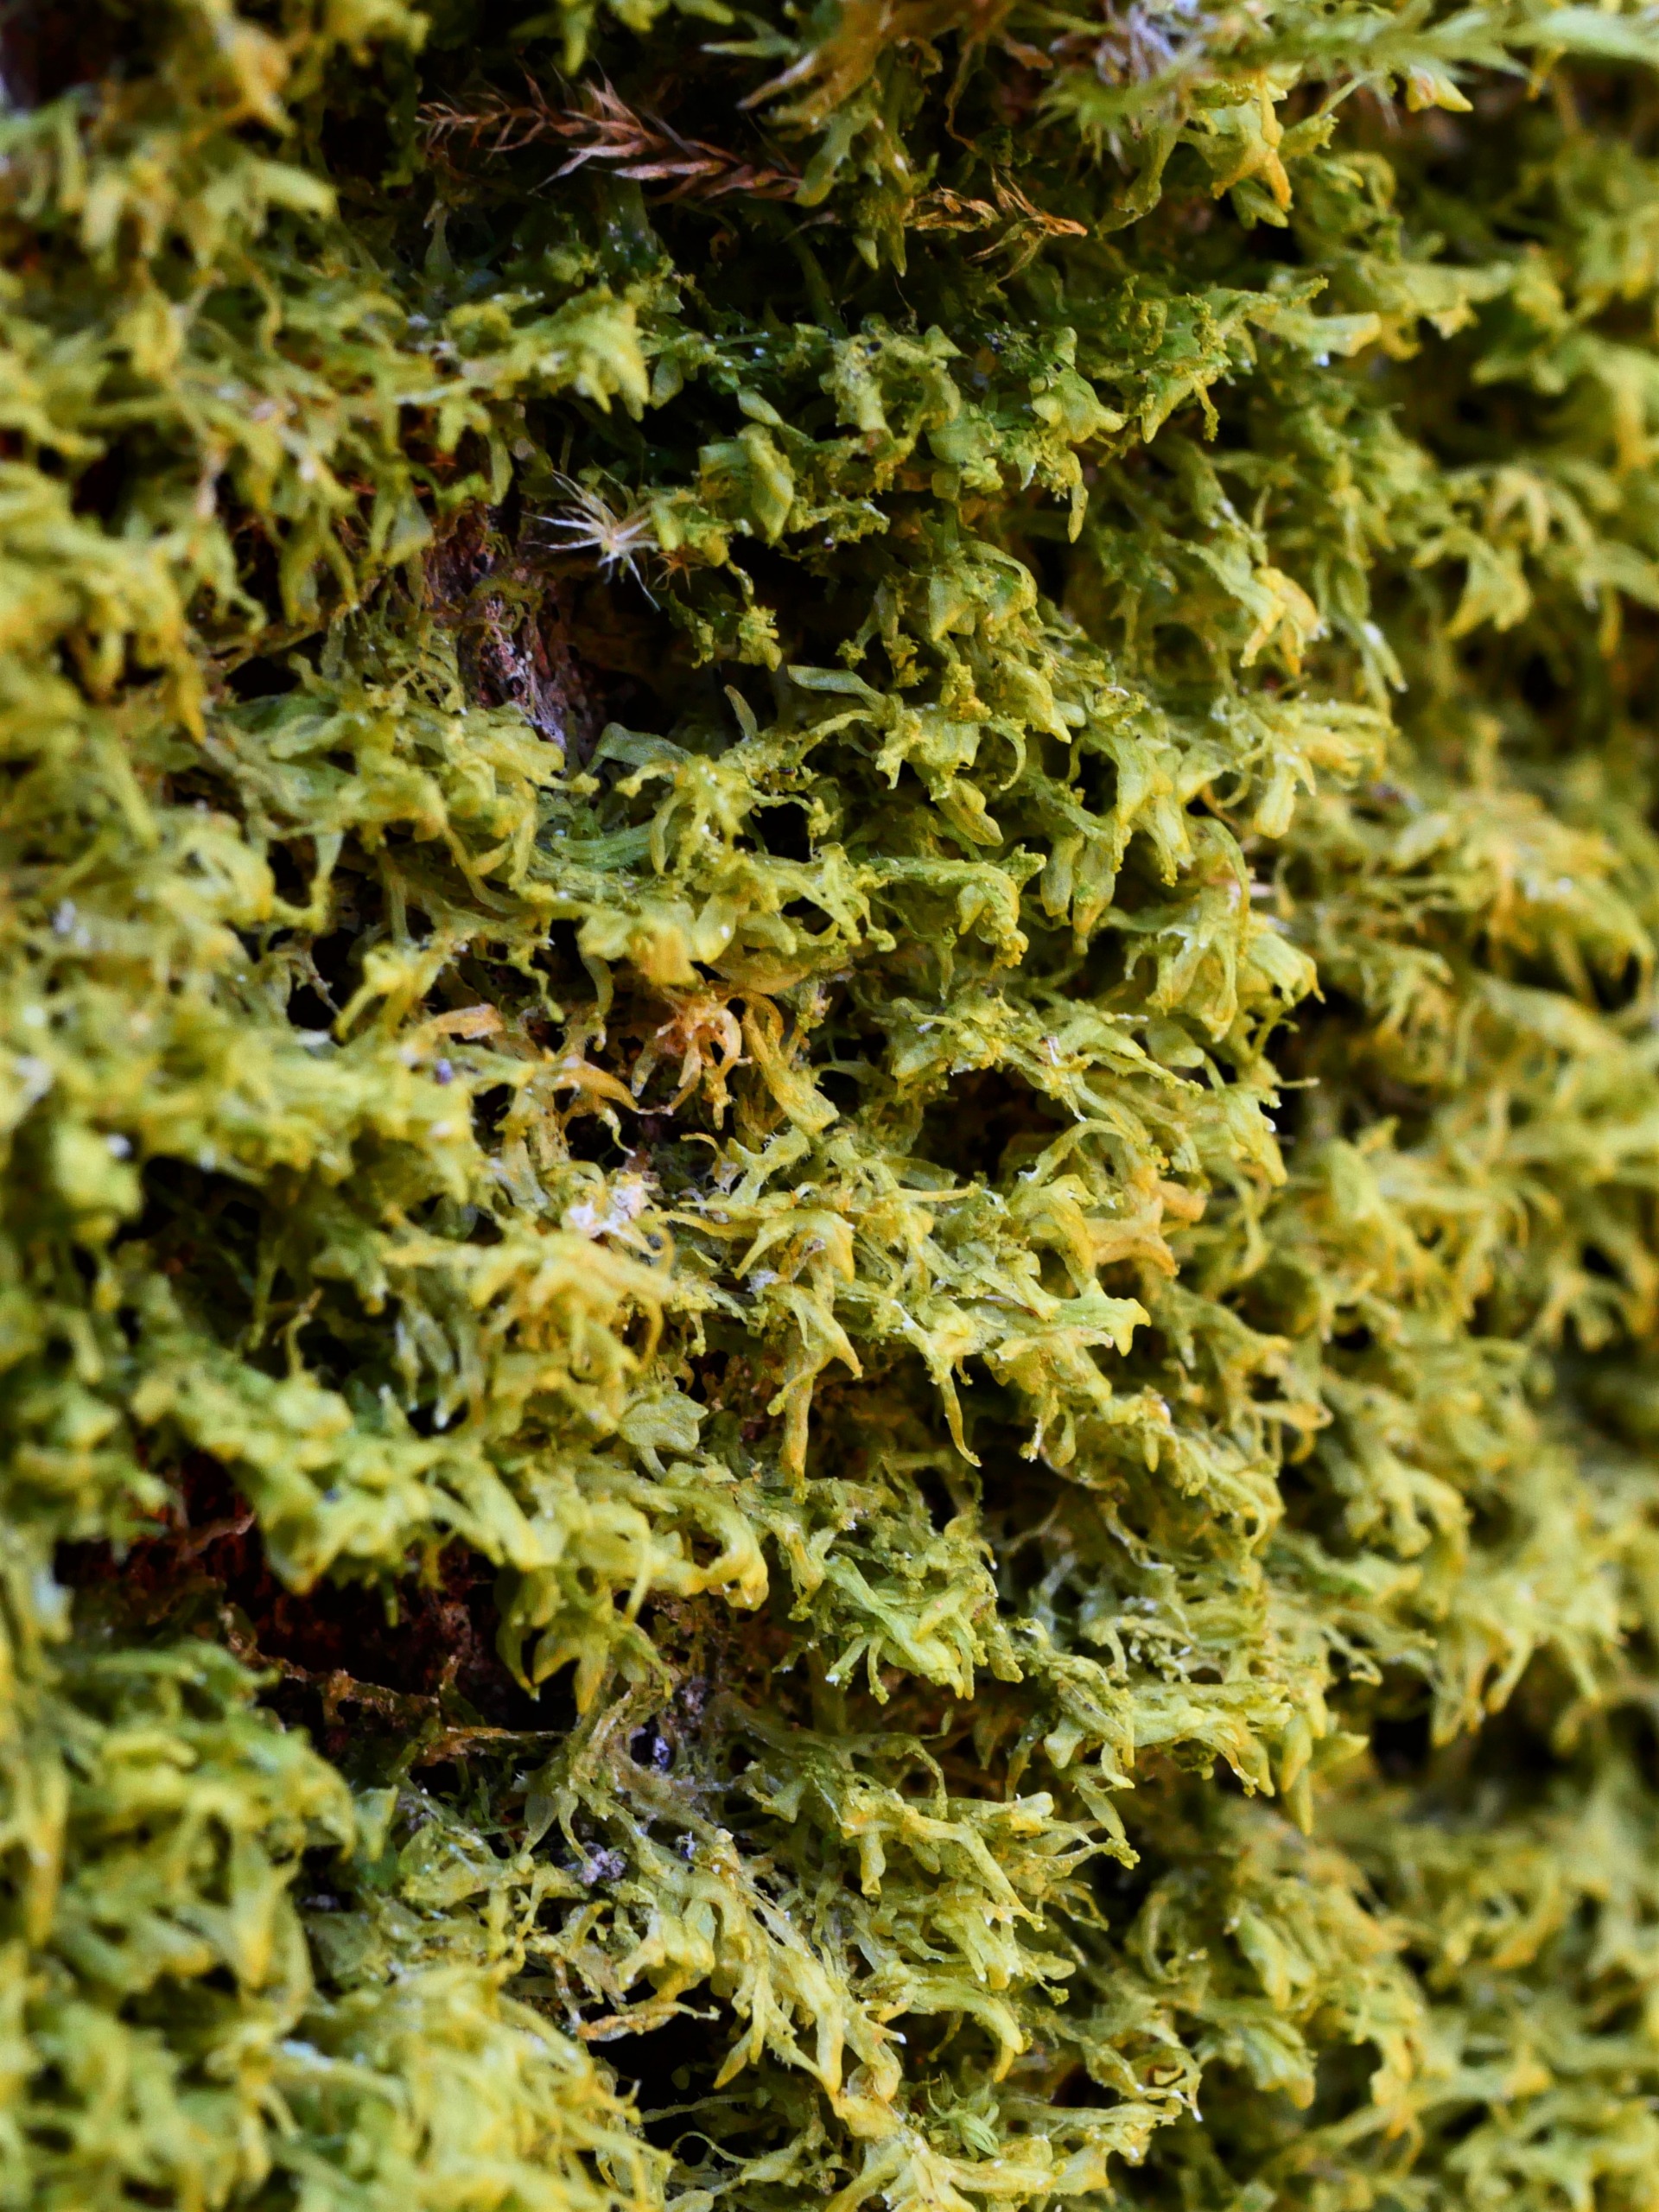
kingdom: Plantae
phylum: Marchantiophyta
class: Jungermanniopsida
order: Metzgeriales
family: Aneuraceae
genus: Riccardia
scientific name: Riccardia palmata
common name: Blågrøn gaffelløv
